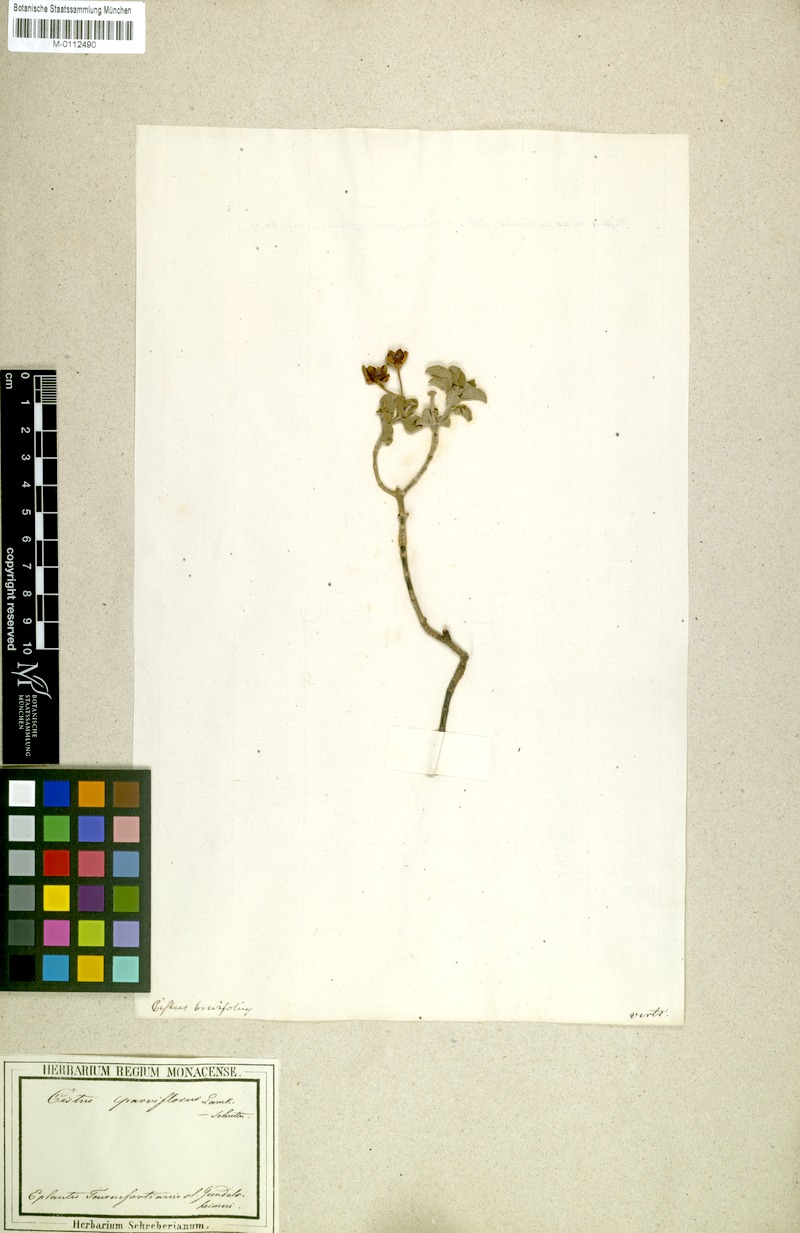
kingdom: Plantae
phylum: Tracheophyta
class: Magnoliopsida
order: Malvales
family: Cistaceae
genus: Cistus
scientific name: Cistus parviflorus
